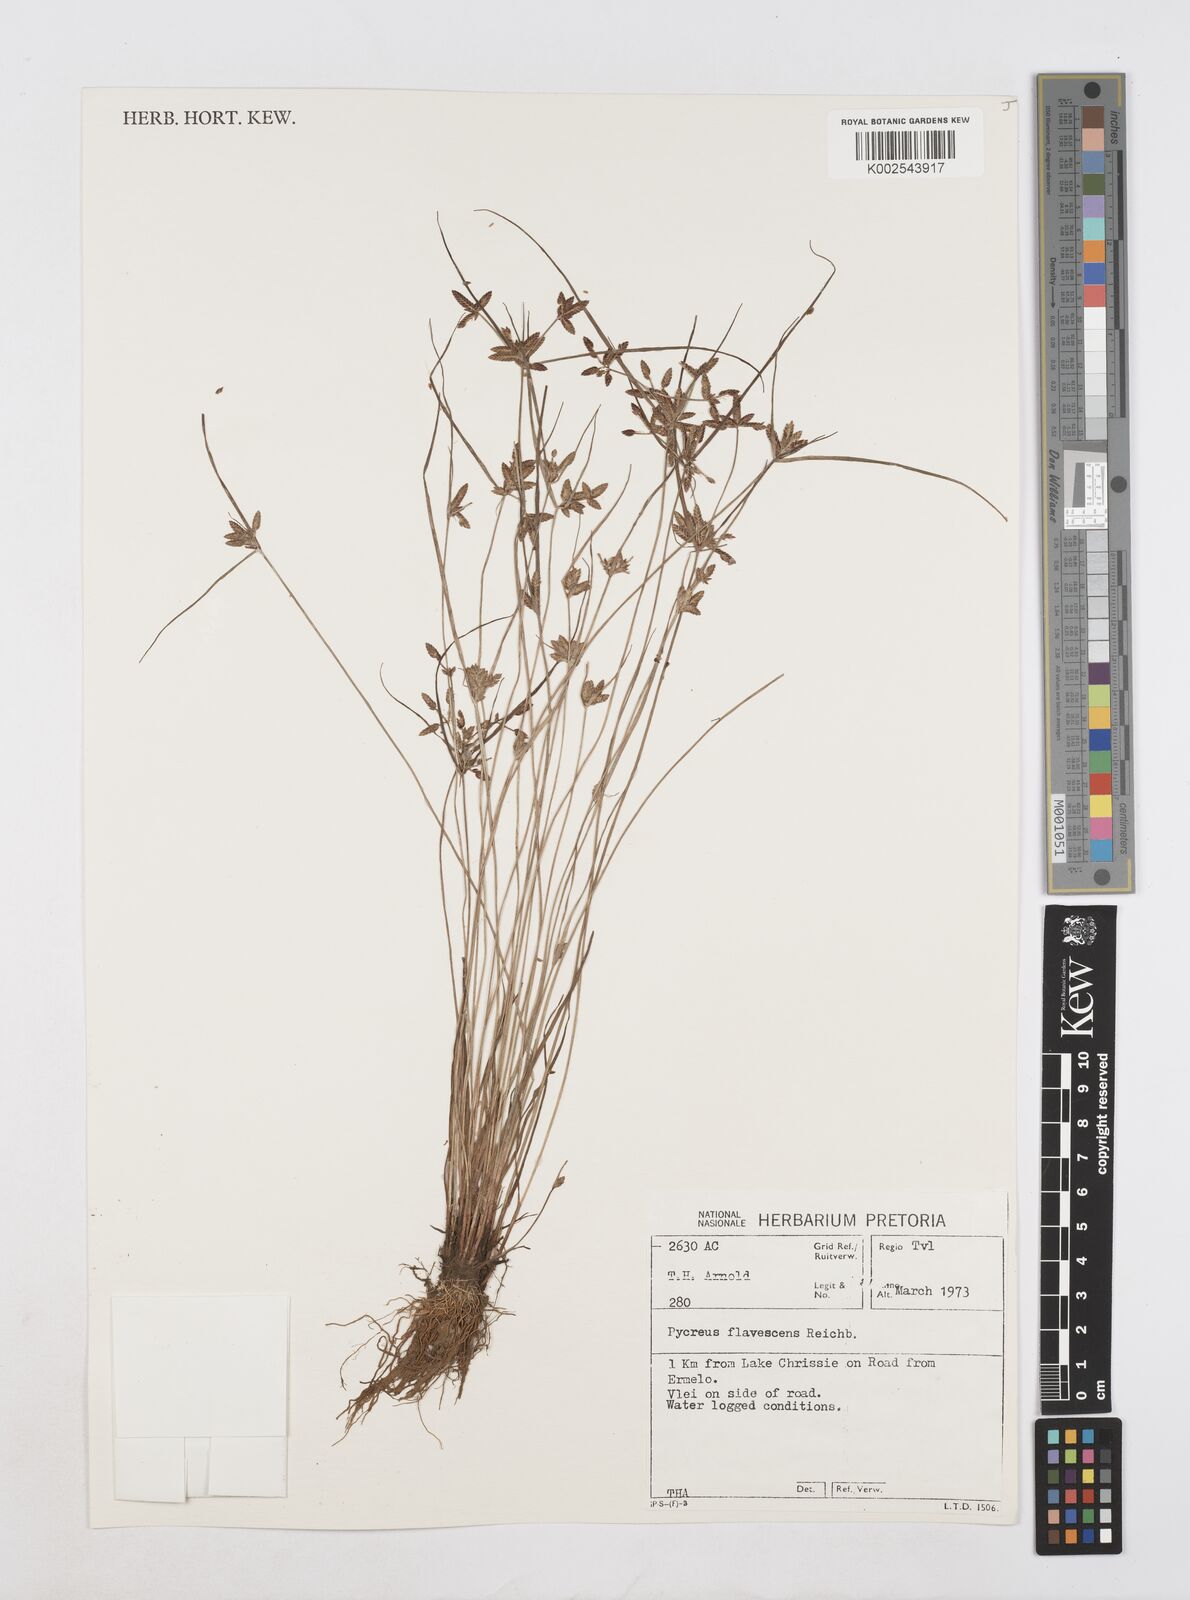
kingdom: Plantae
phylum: Tracheophyta
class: Liliopsida
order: Poales
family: Cyperaceae
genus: Cyperus
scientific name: Cyperus flavescens
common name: Yellow galingale
